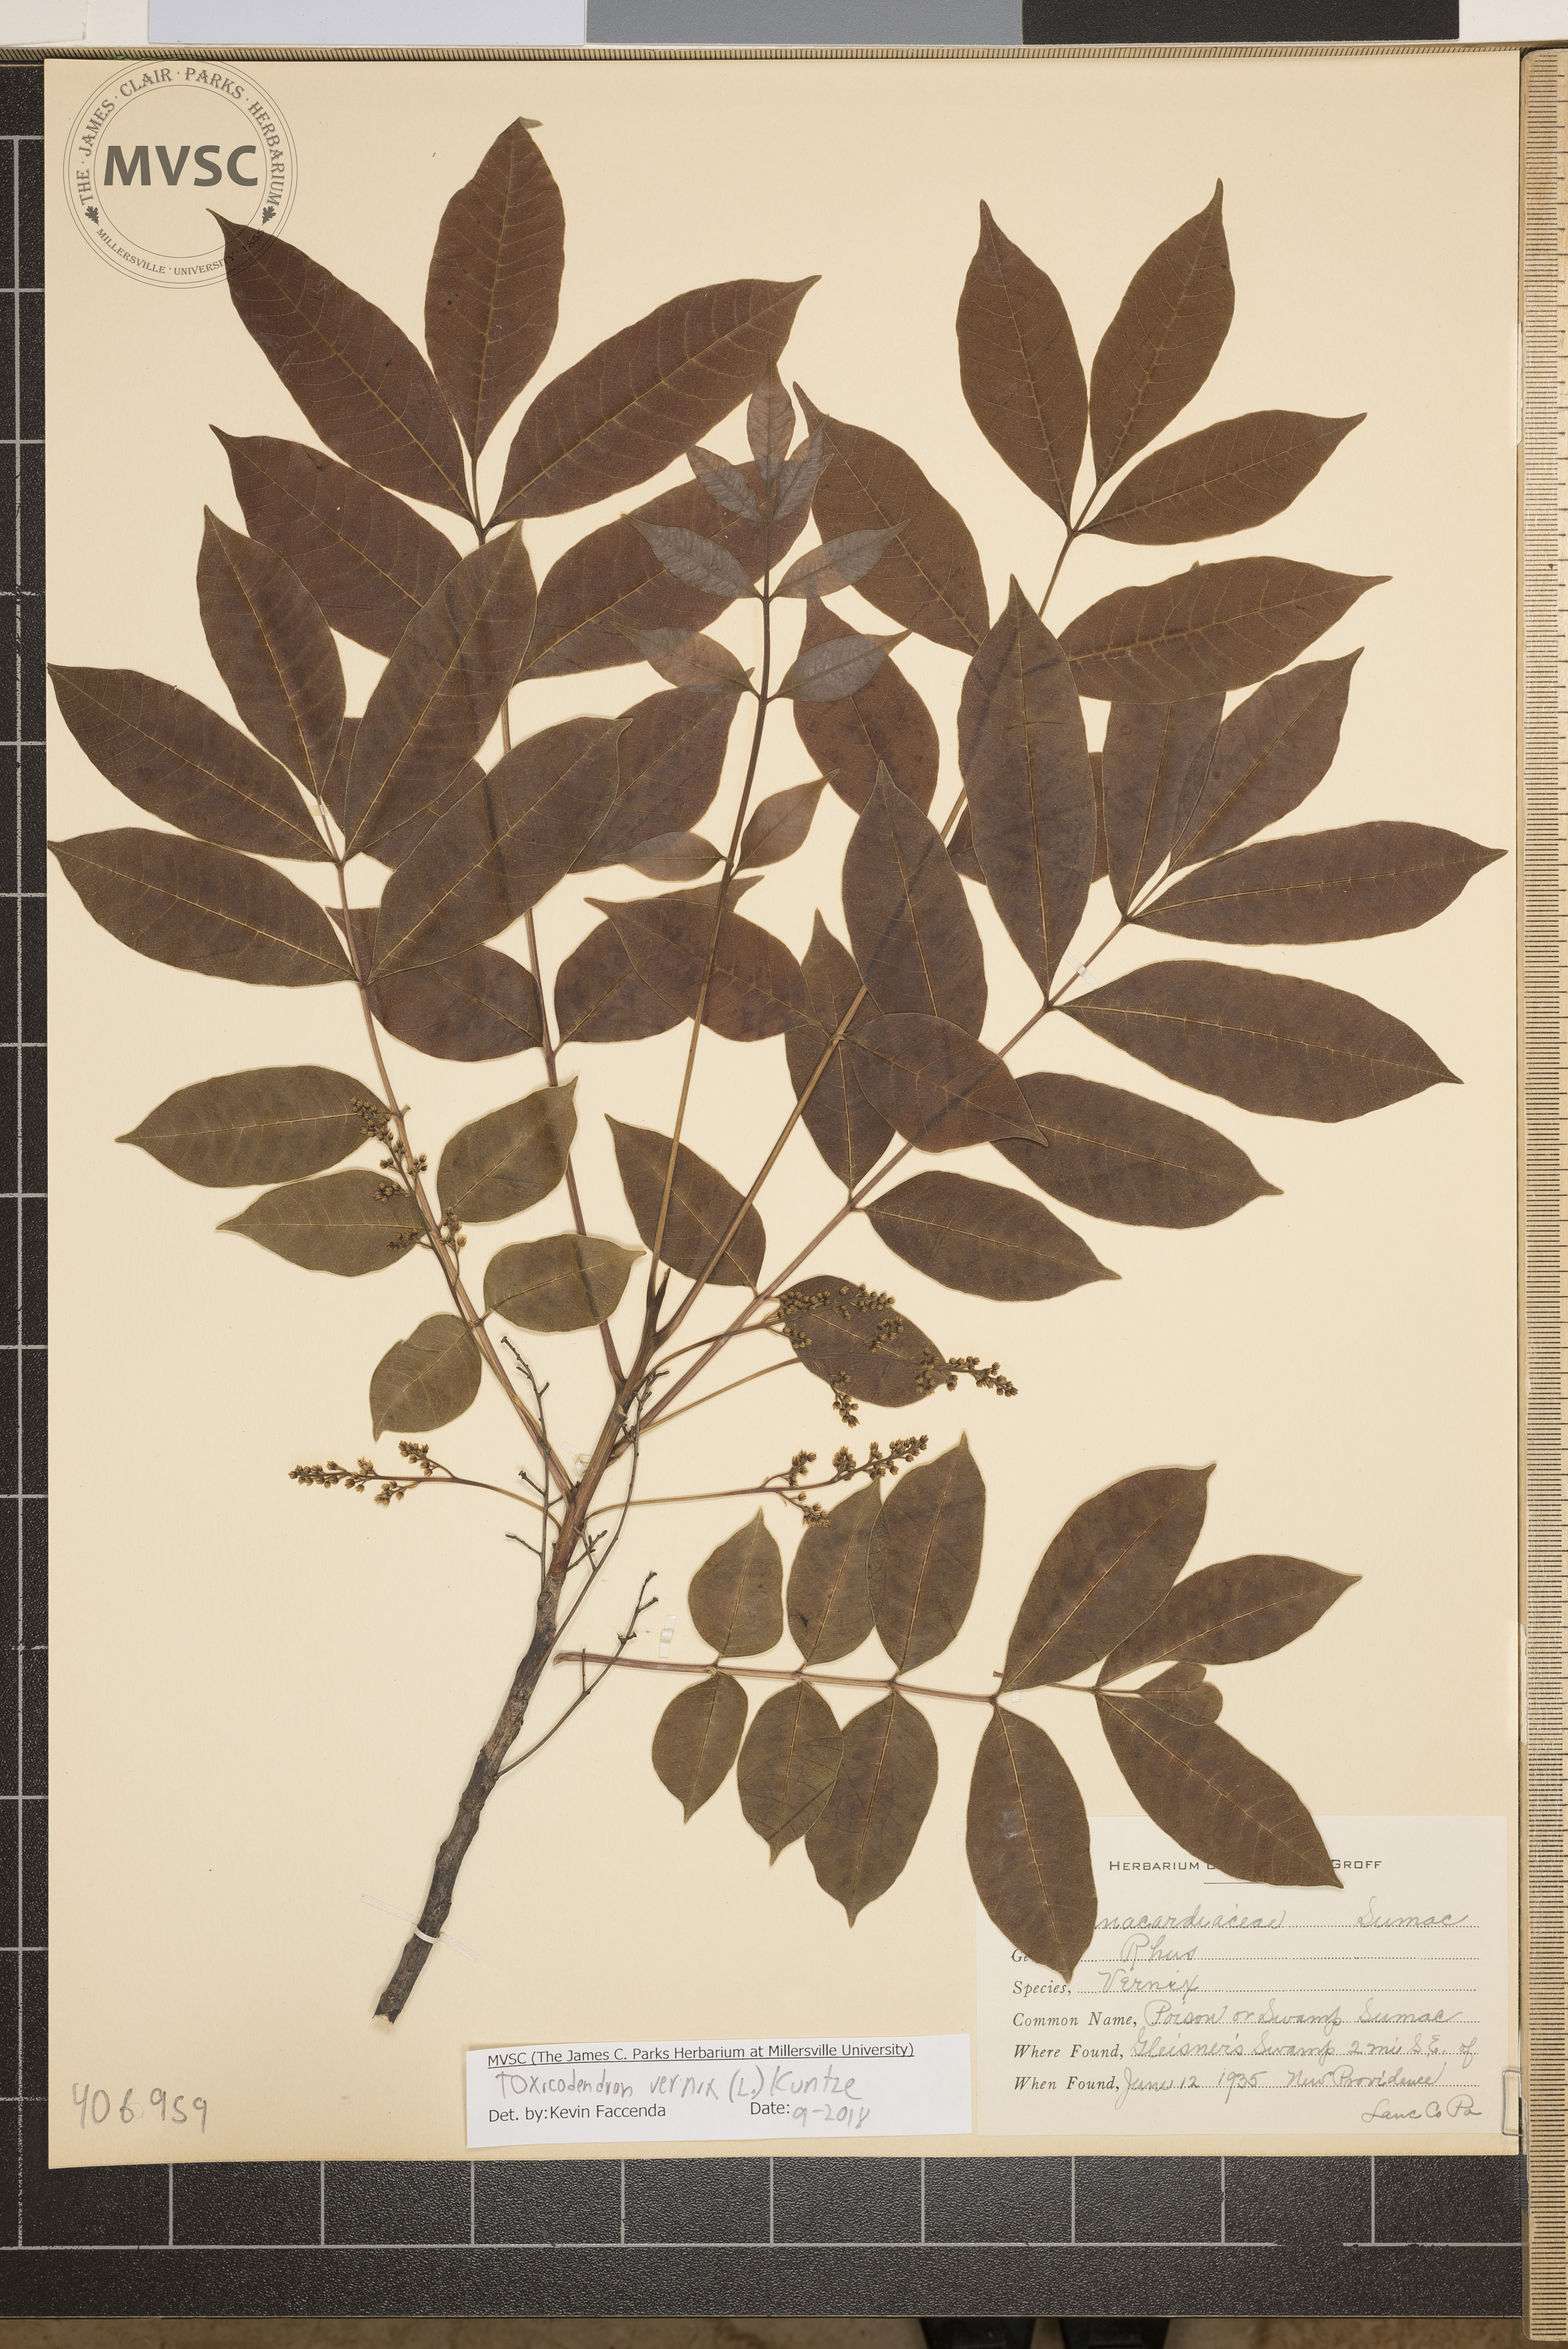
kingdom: Plantae
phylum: Tracheophyta
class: Magnoliopsida
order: Sapindales
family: Anacardiaceae
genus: Toxicodendron
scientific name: Toxicodendron vernix
